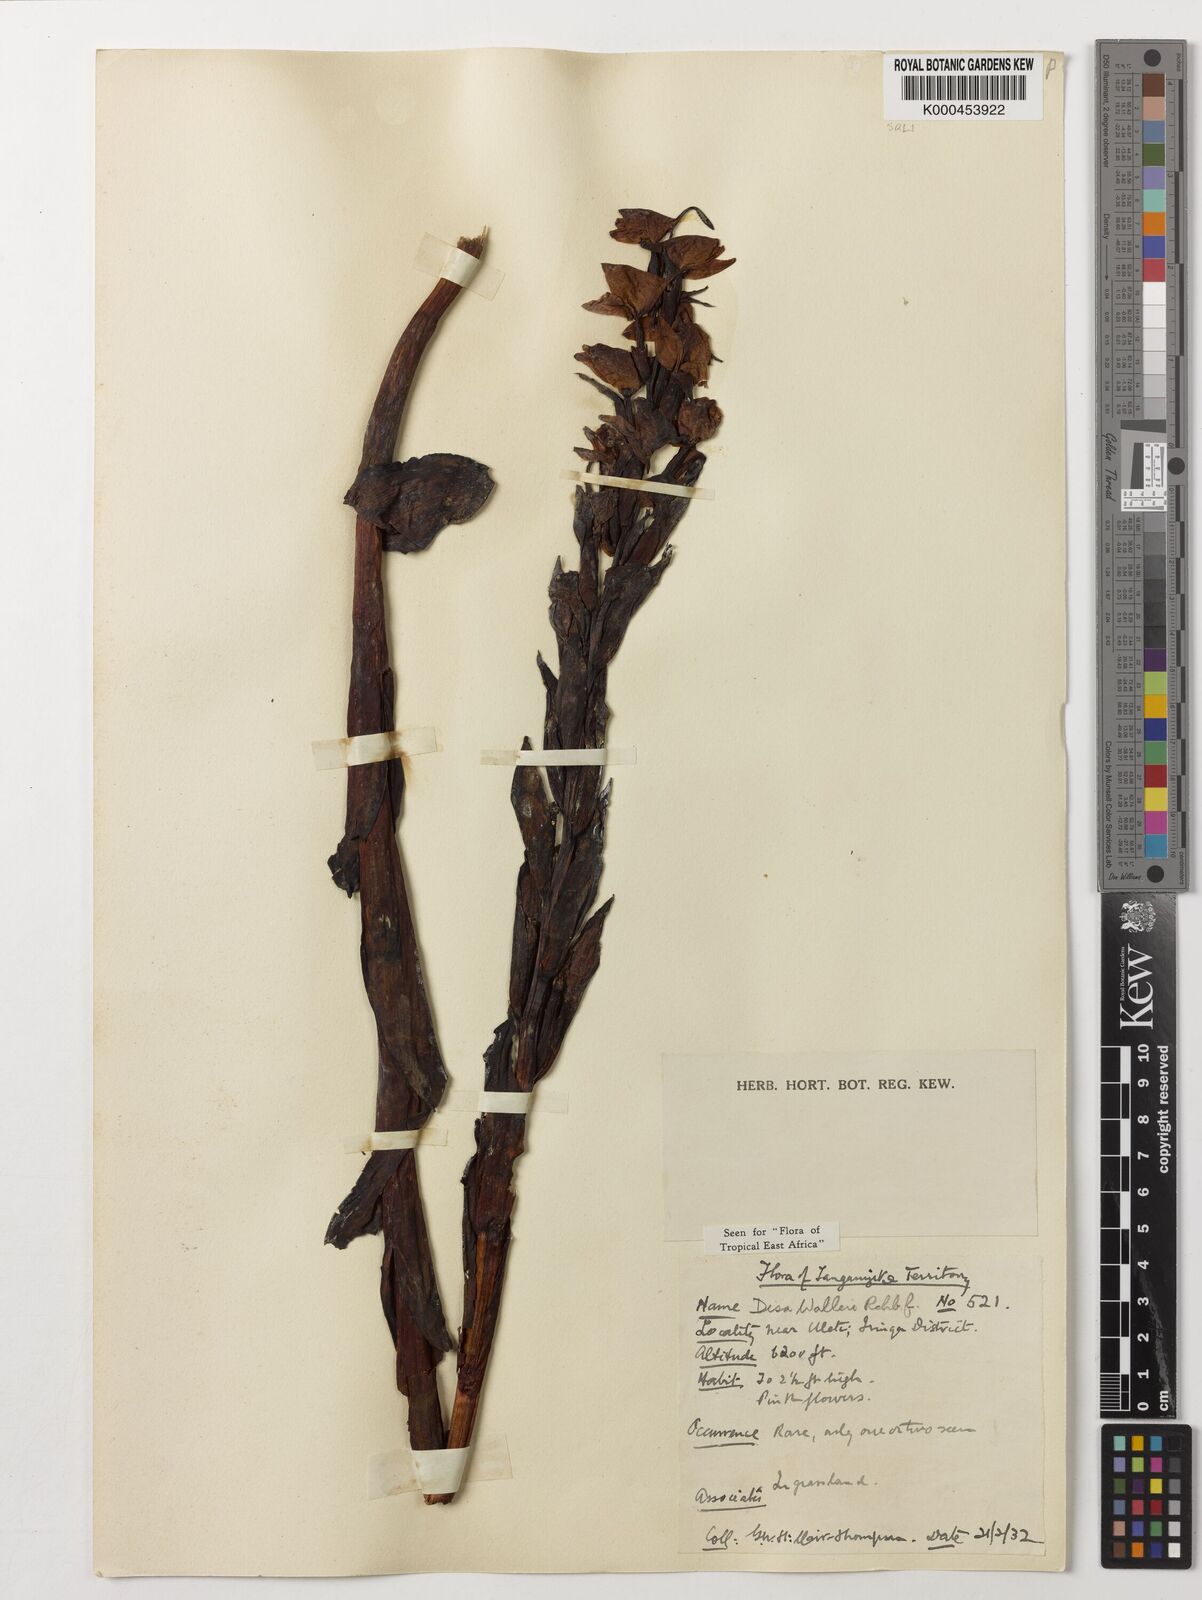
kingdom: Plantae
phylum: Tracheophyta
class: Liliopsida
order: Asparagales
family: Orchidaceae
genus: Disa
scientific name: Disa walleri
